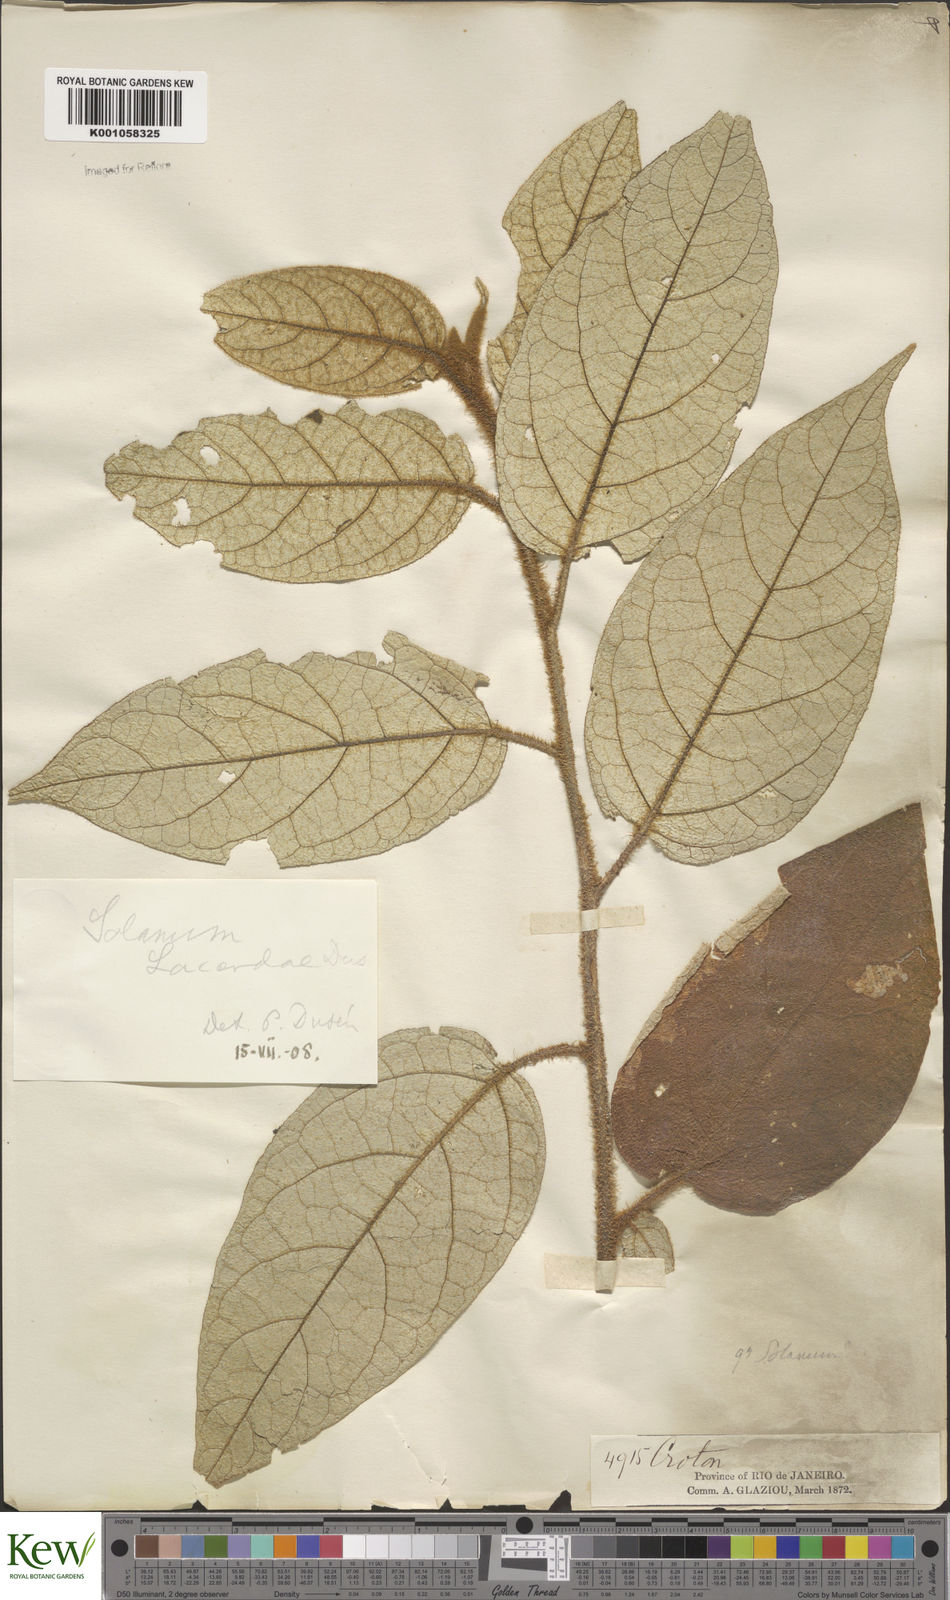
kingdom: Plantae
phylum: Tracheophyta
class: Magnoliopsida
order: Solanales
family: Solanaceae
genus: Solanum
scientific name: Solanum
